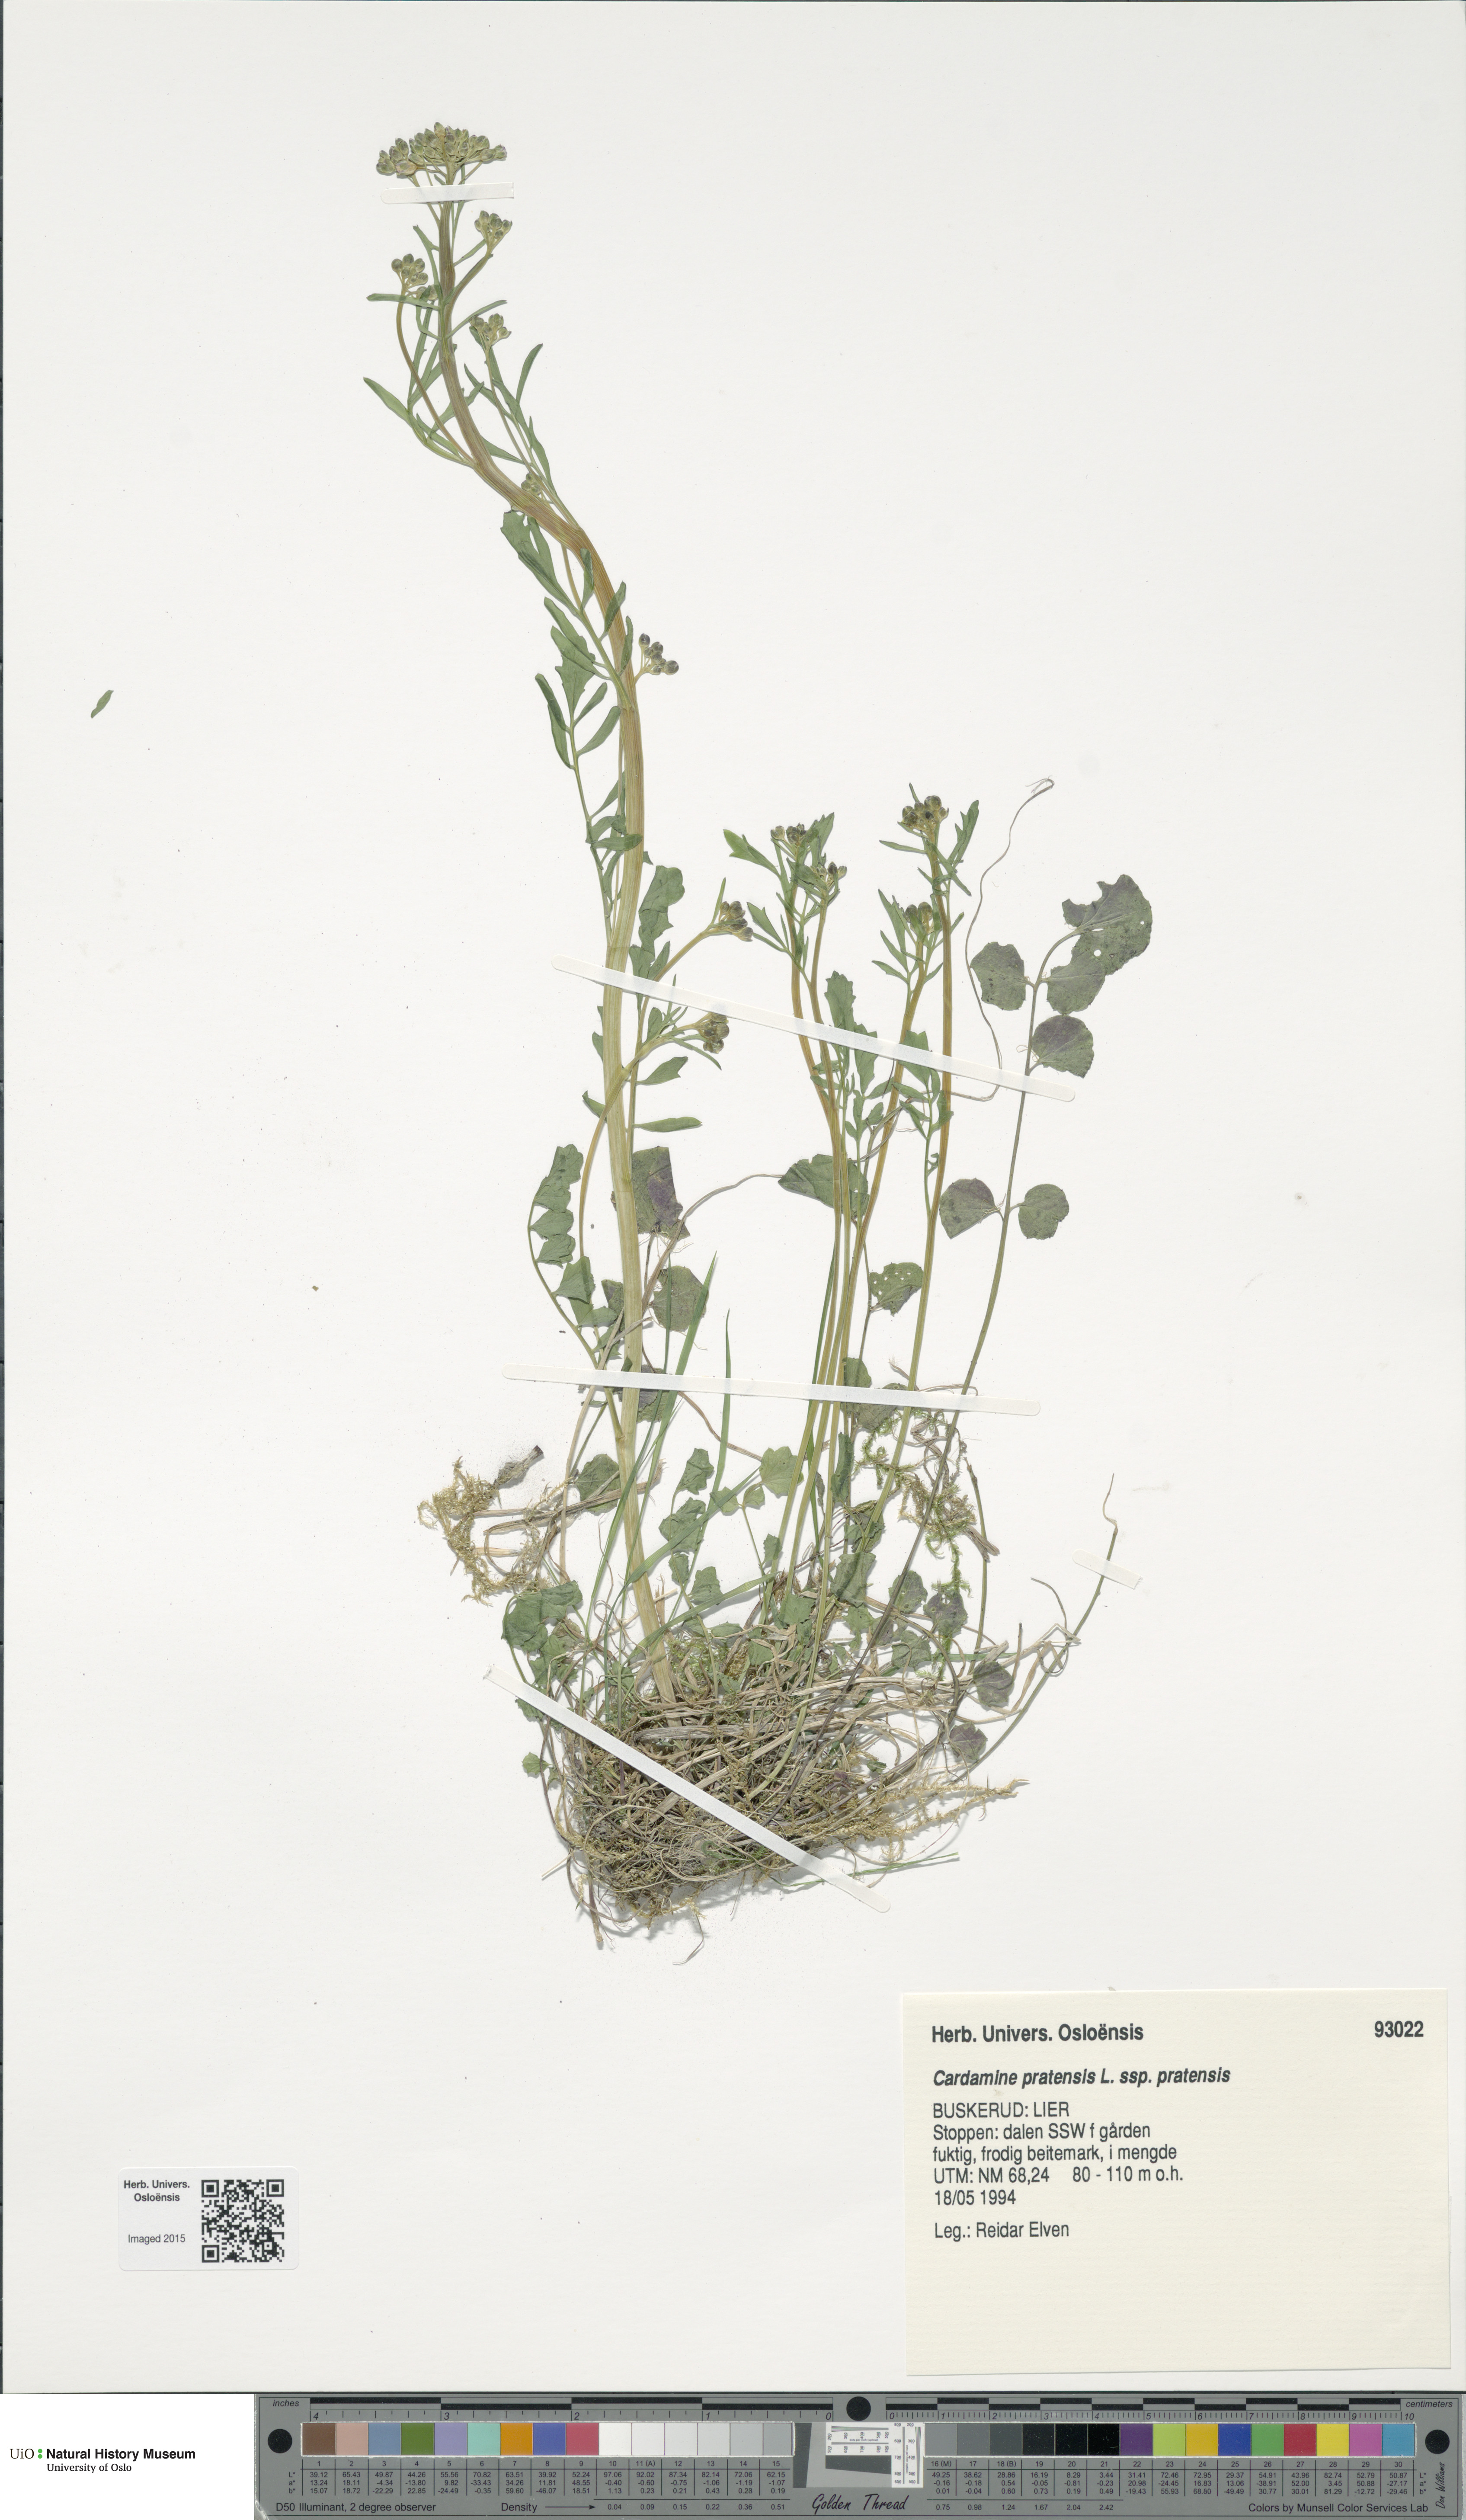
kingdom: Plantae
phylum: Tracheophyta
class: Magnoliopsida
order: Brassicales
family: Brassicaceae
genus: Cardamine
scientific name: Cardamine pratensis
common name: Cuckoo flower
